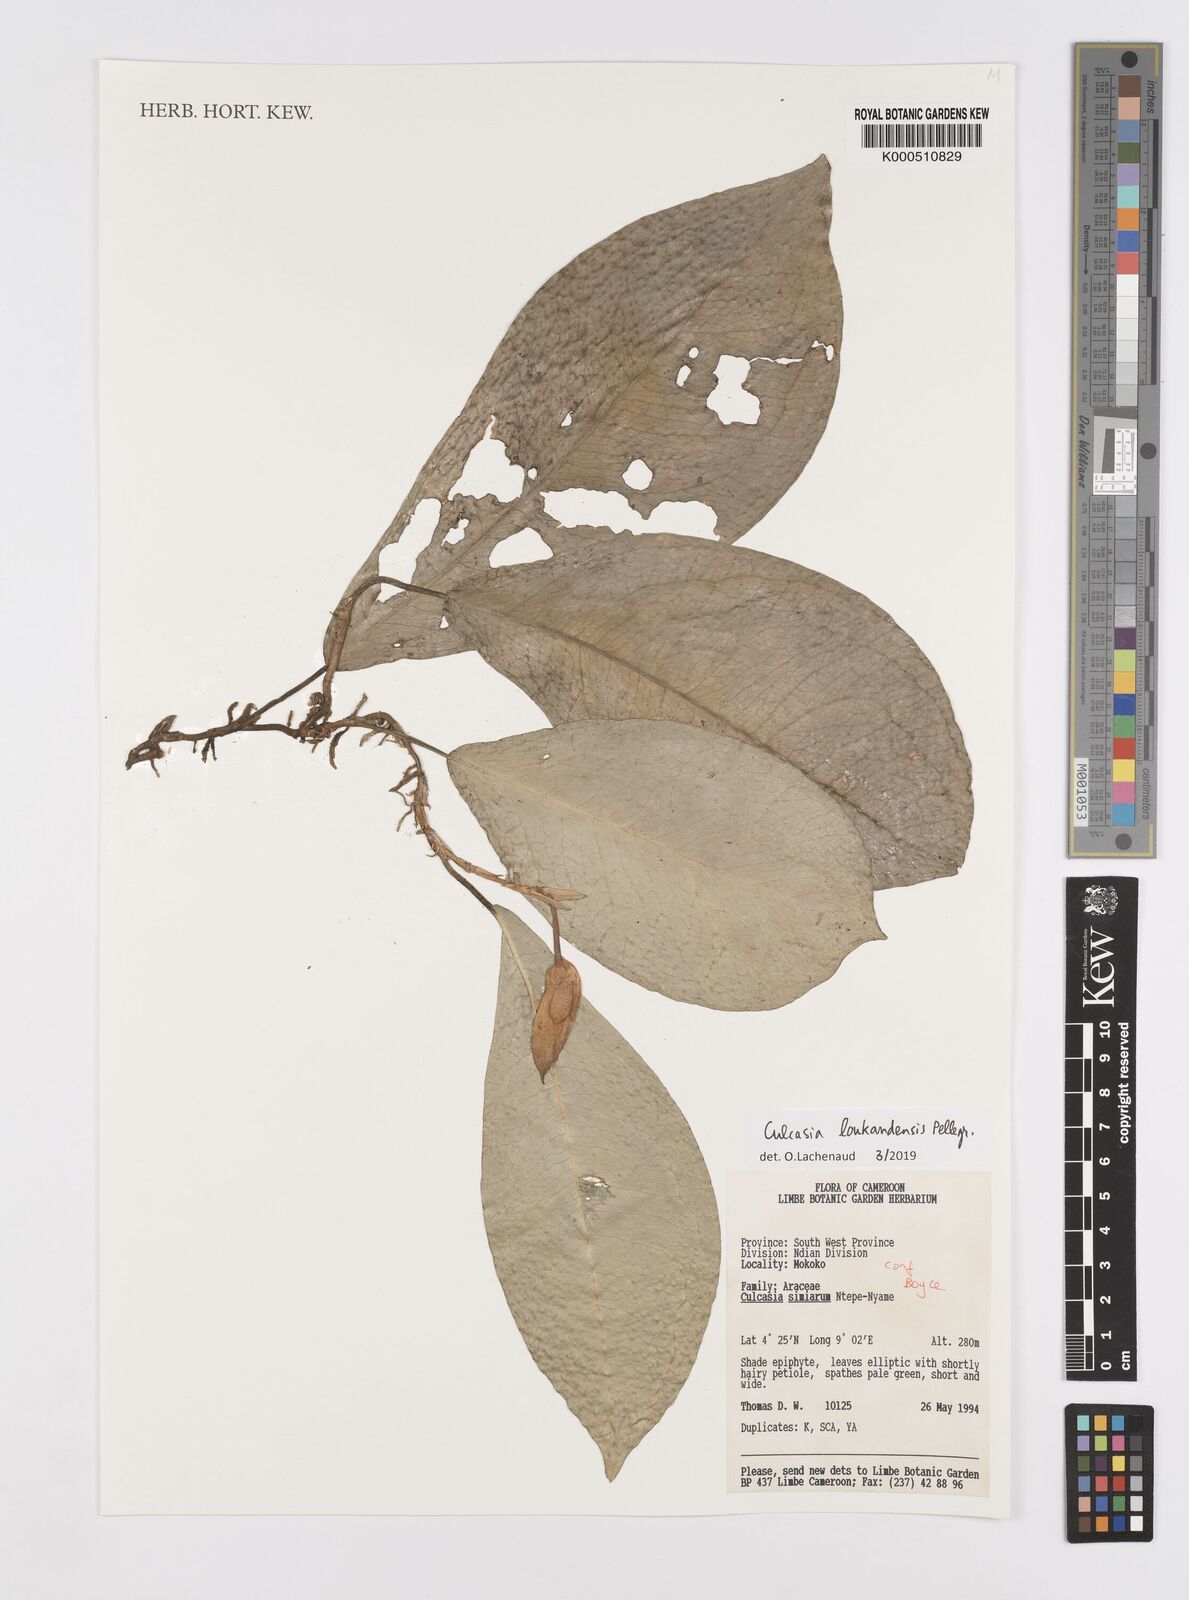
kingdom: Plantae
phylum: Tracheophyta
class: Liliopsida
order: Alismatales
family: Araceae
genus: Culcasia
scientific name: Culcasia loukandensis
